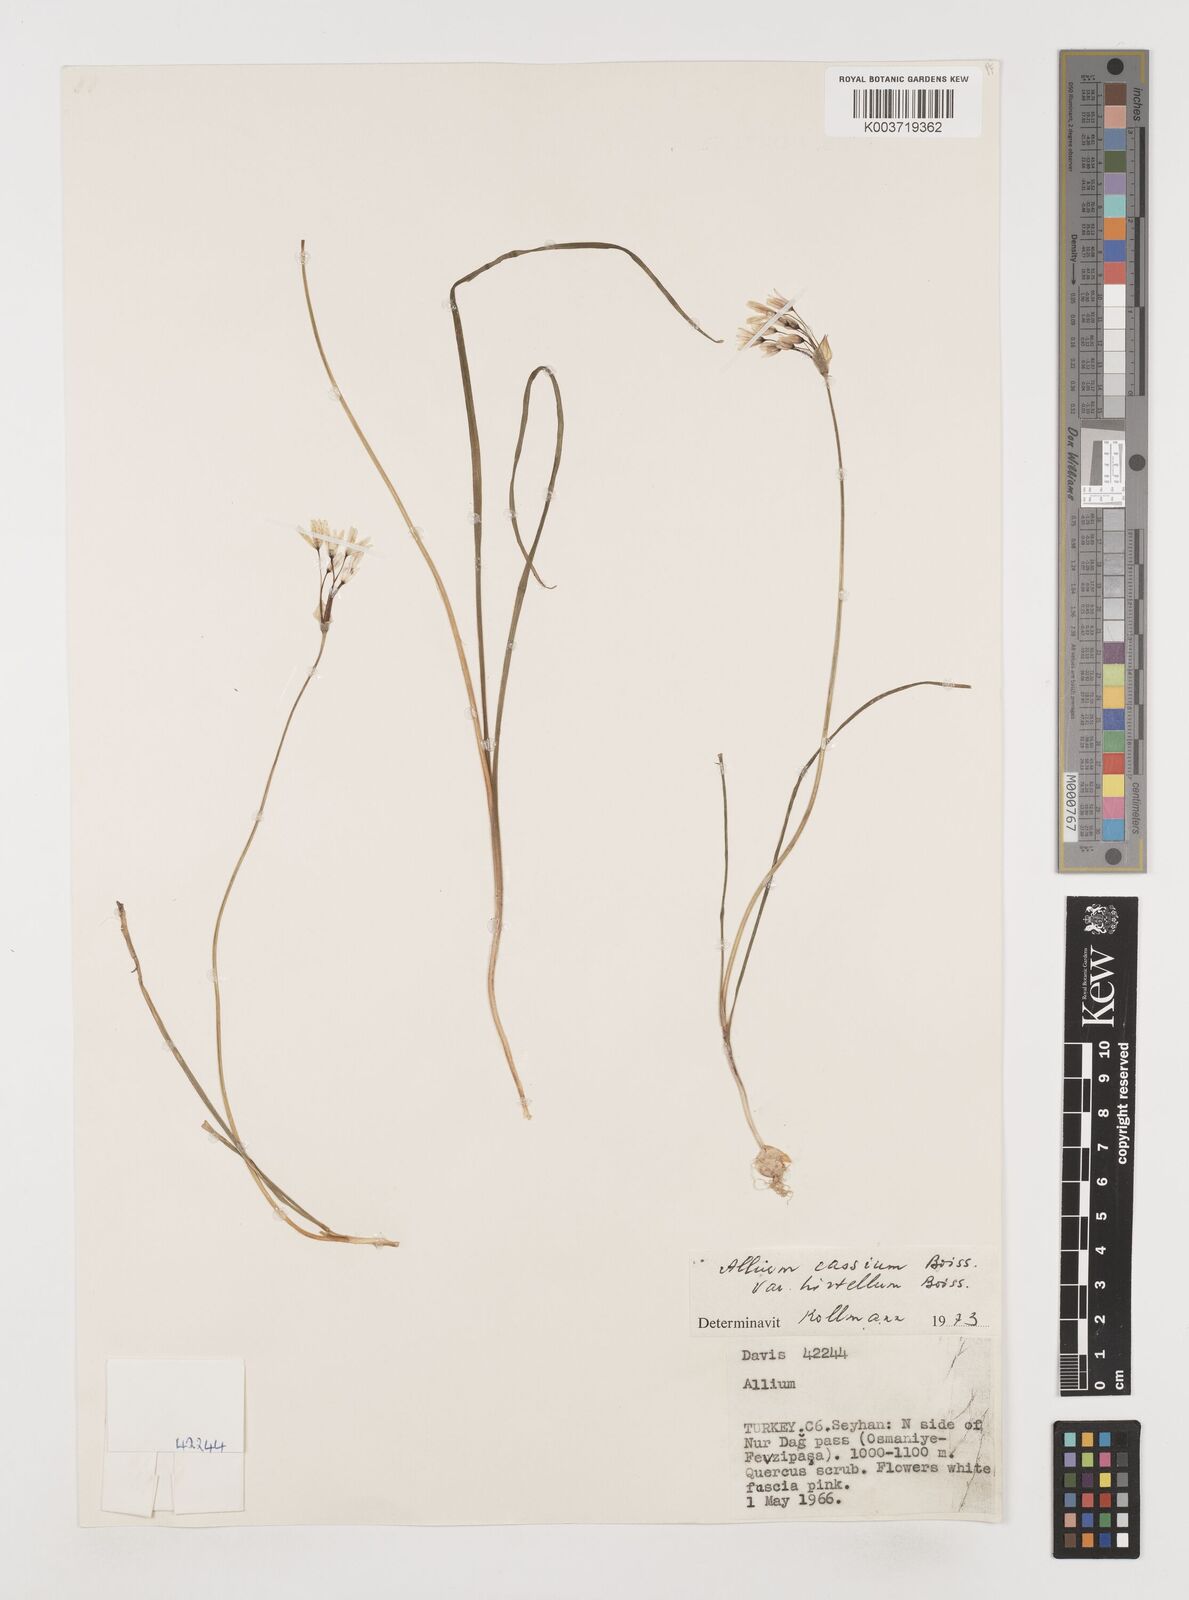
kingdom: Plantae
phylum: Tracheophyta
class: Liliopsida
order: Asparagales
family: Amaryllidaceae
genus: Allium
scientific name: Allium cassium
